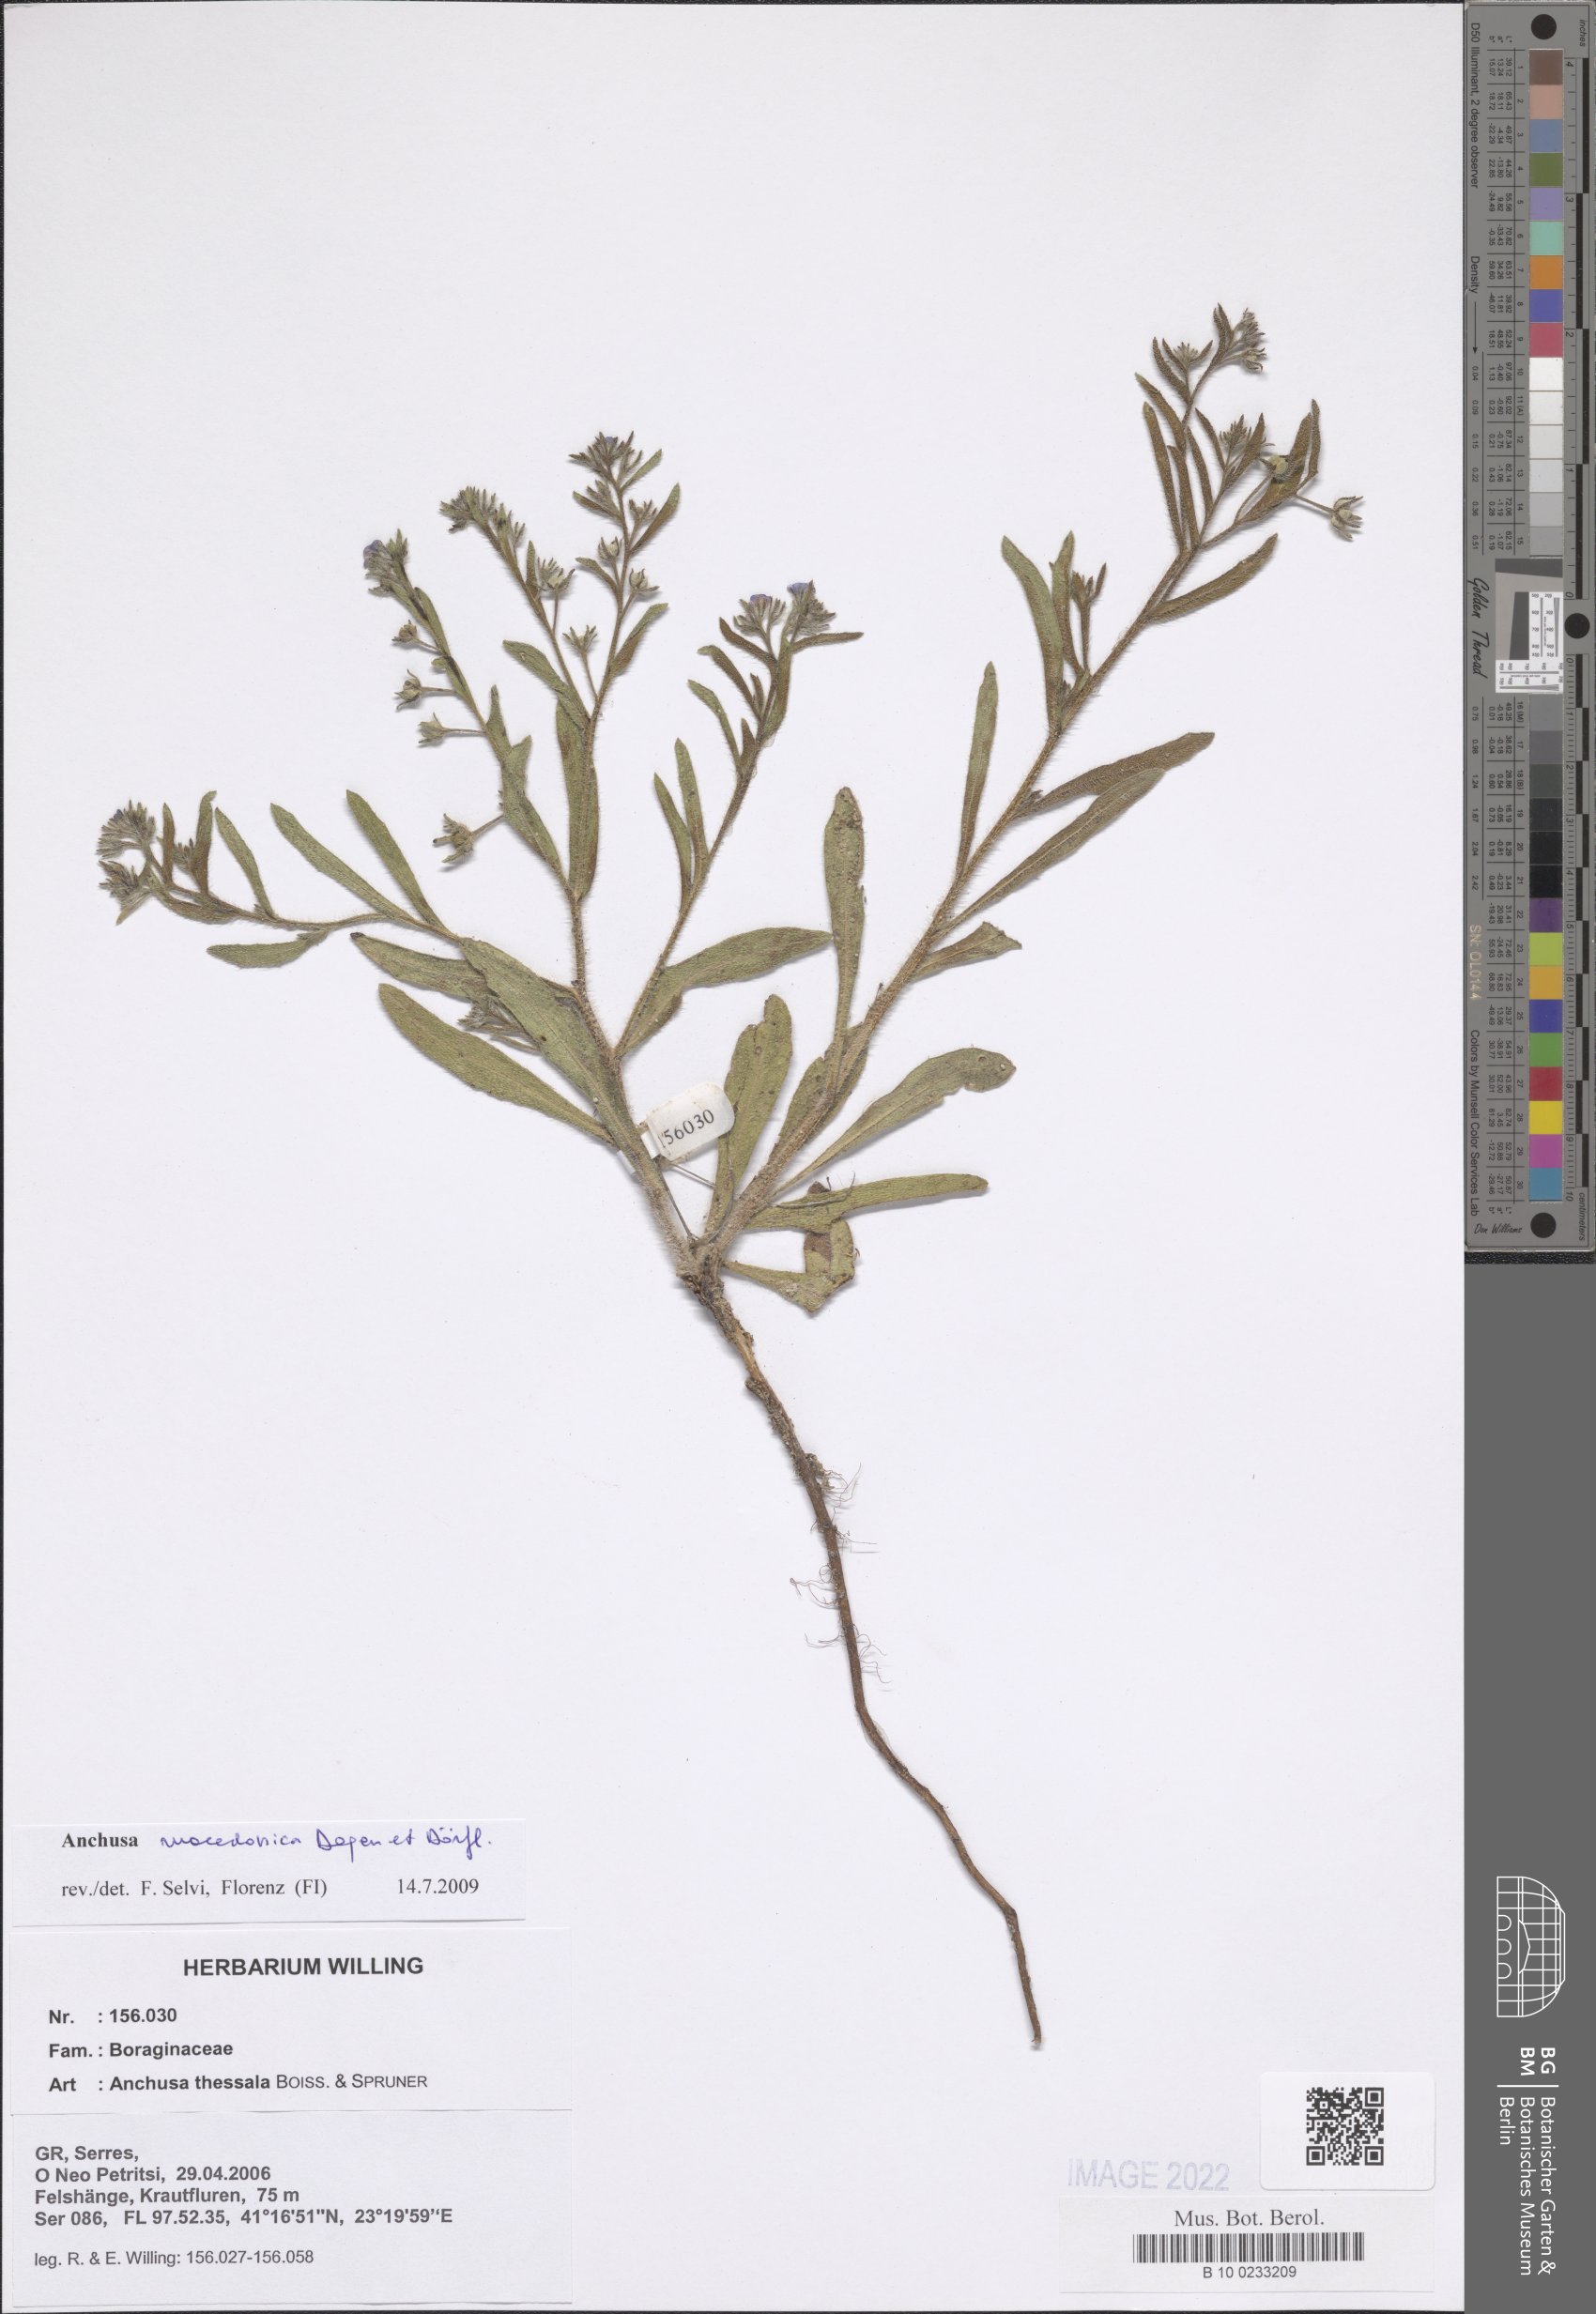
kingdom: Plantae
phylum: Tracheophyta
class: Magnoliopsida
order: Boraginales
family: Boraginaceae
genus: Anchusa
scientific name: Anchusa thessala
